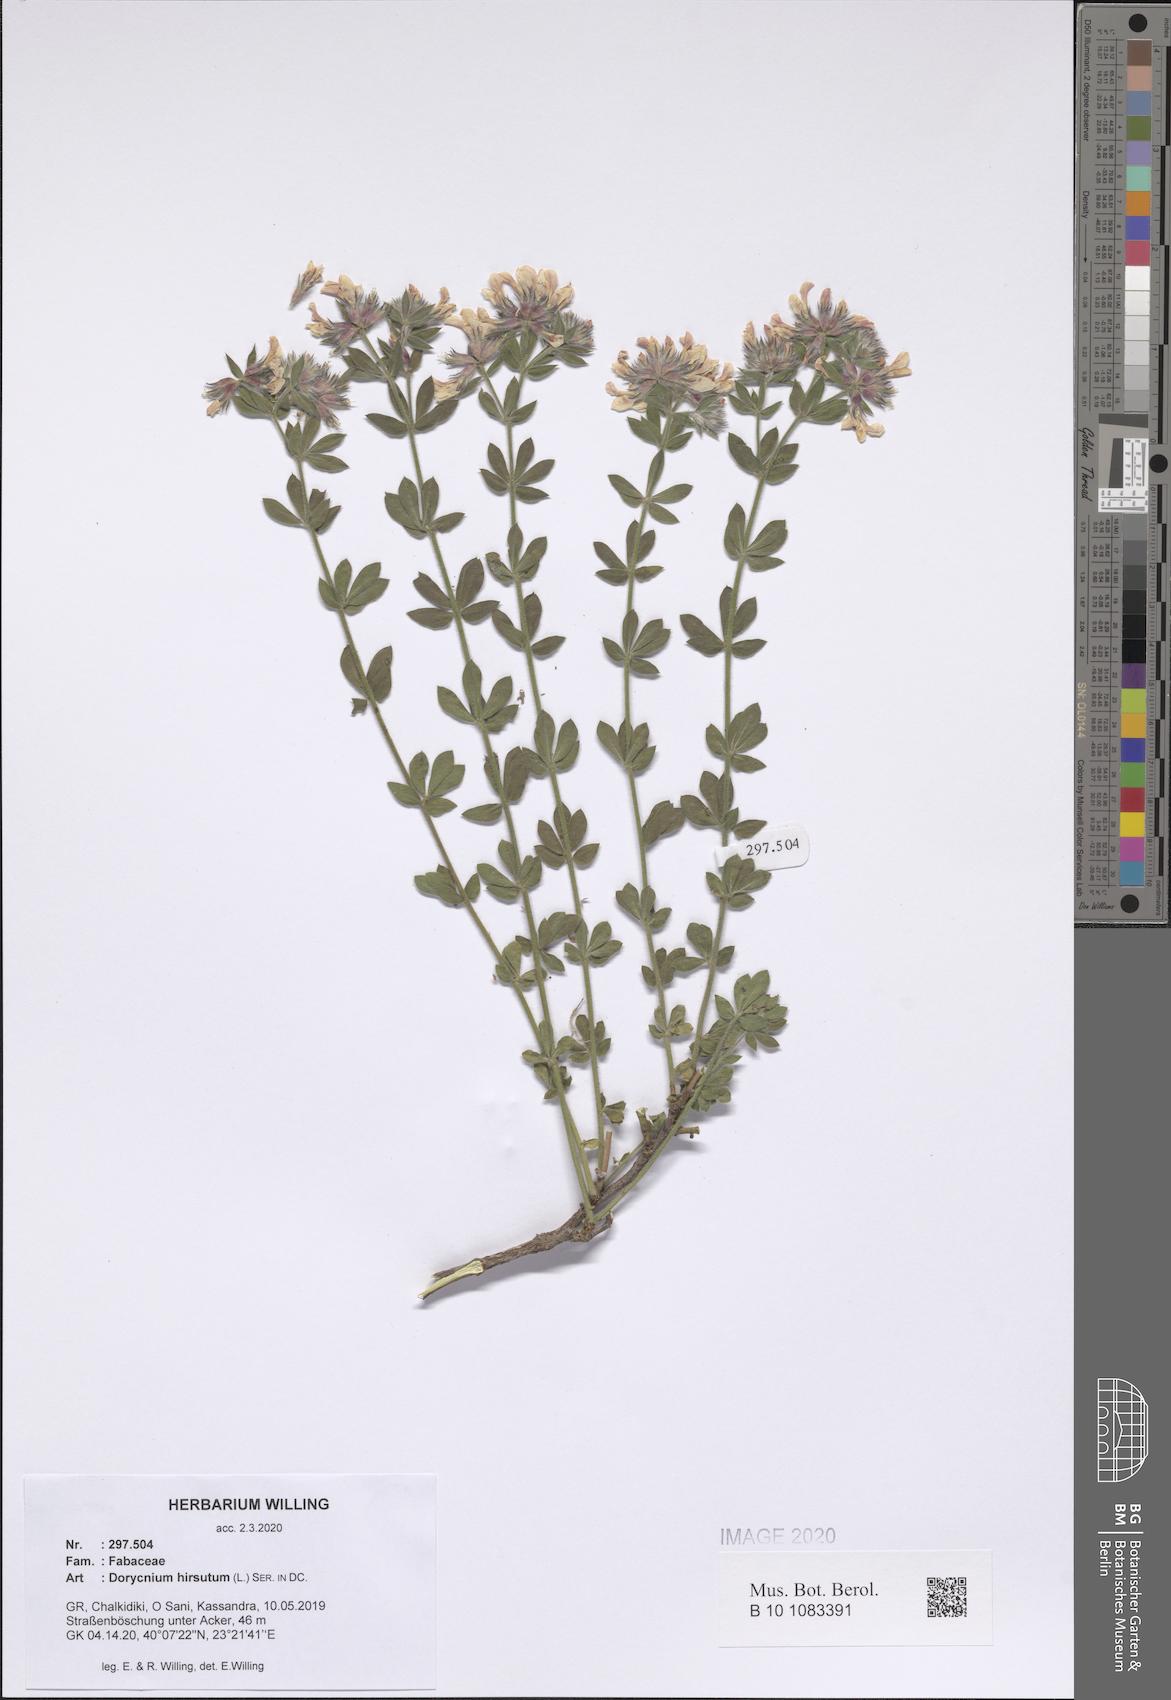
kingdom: Plantae
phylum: Tracheophyta
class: Magnoliopsida
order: Fabales
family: Fabaceae
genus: Lotus
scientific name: Lotus hirsutus
